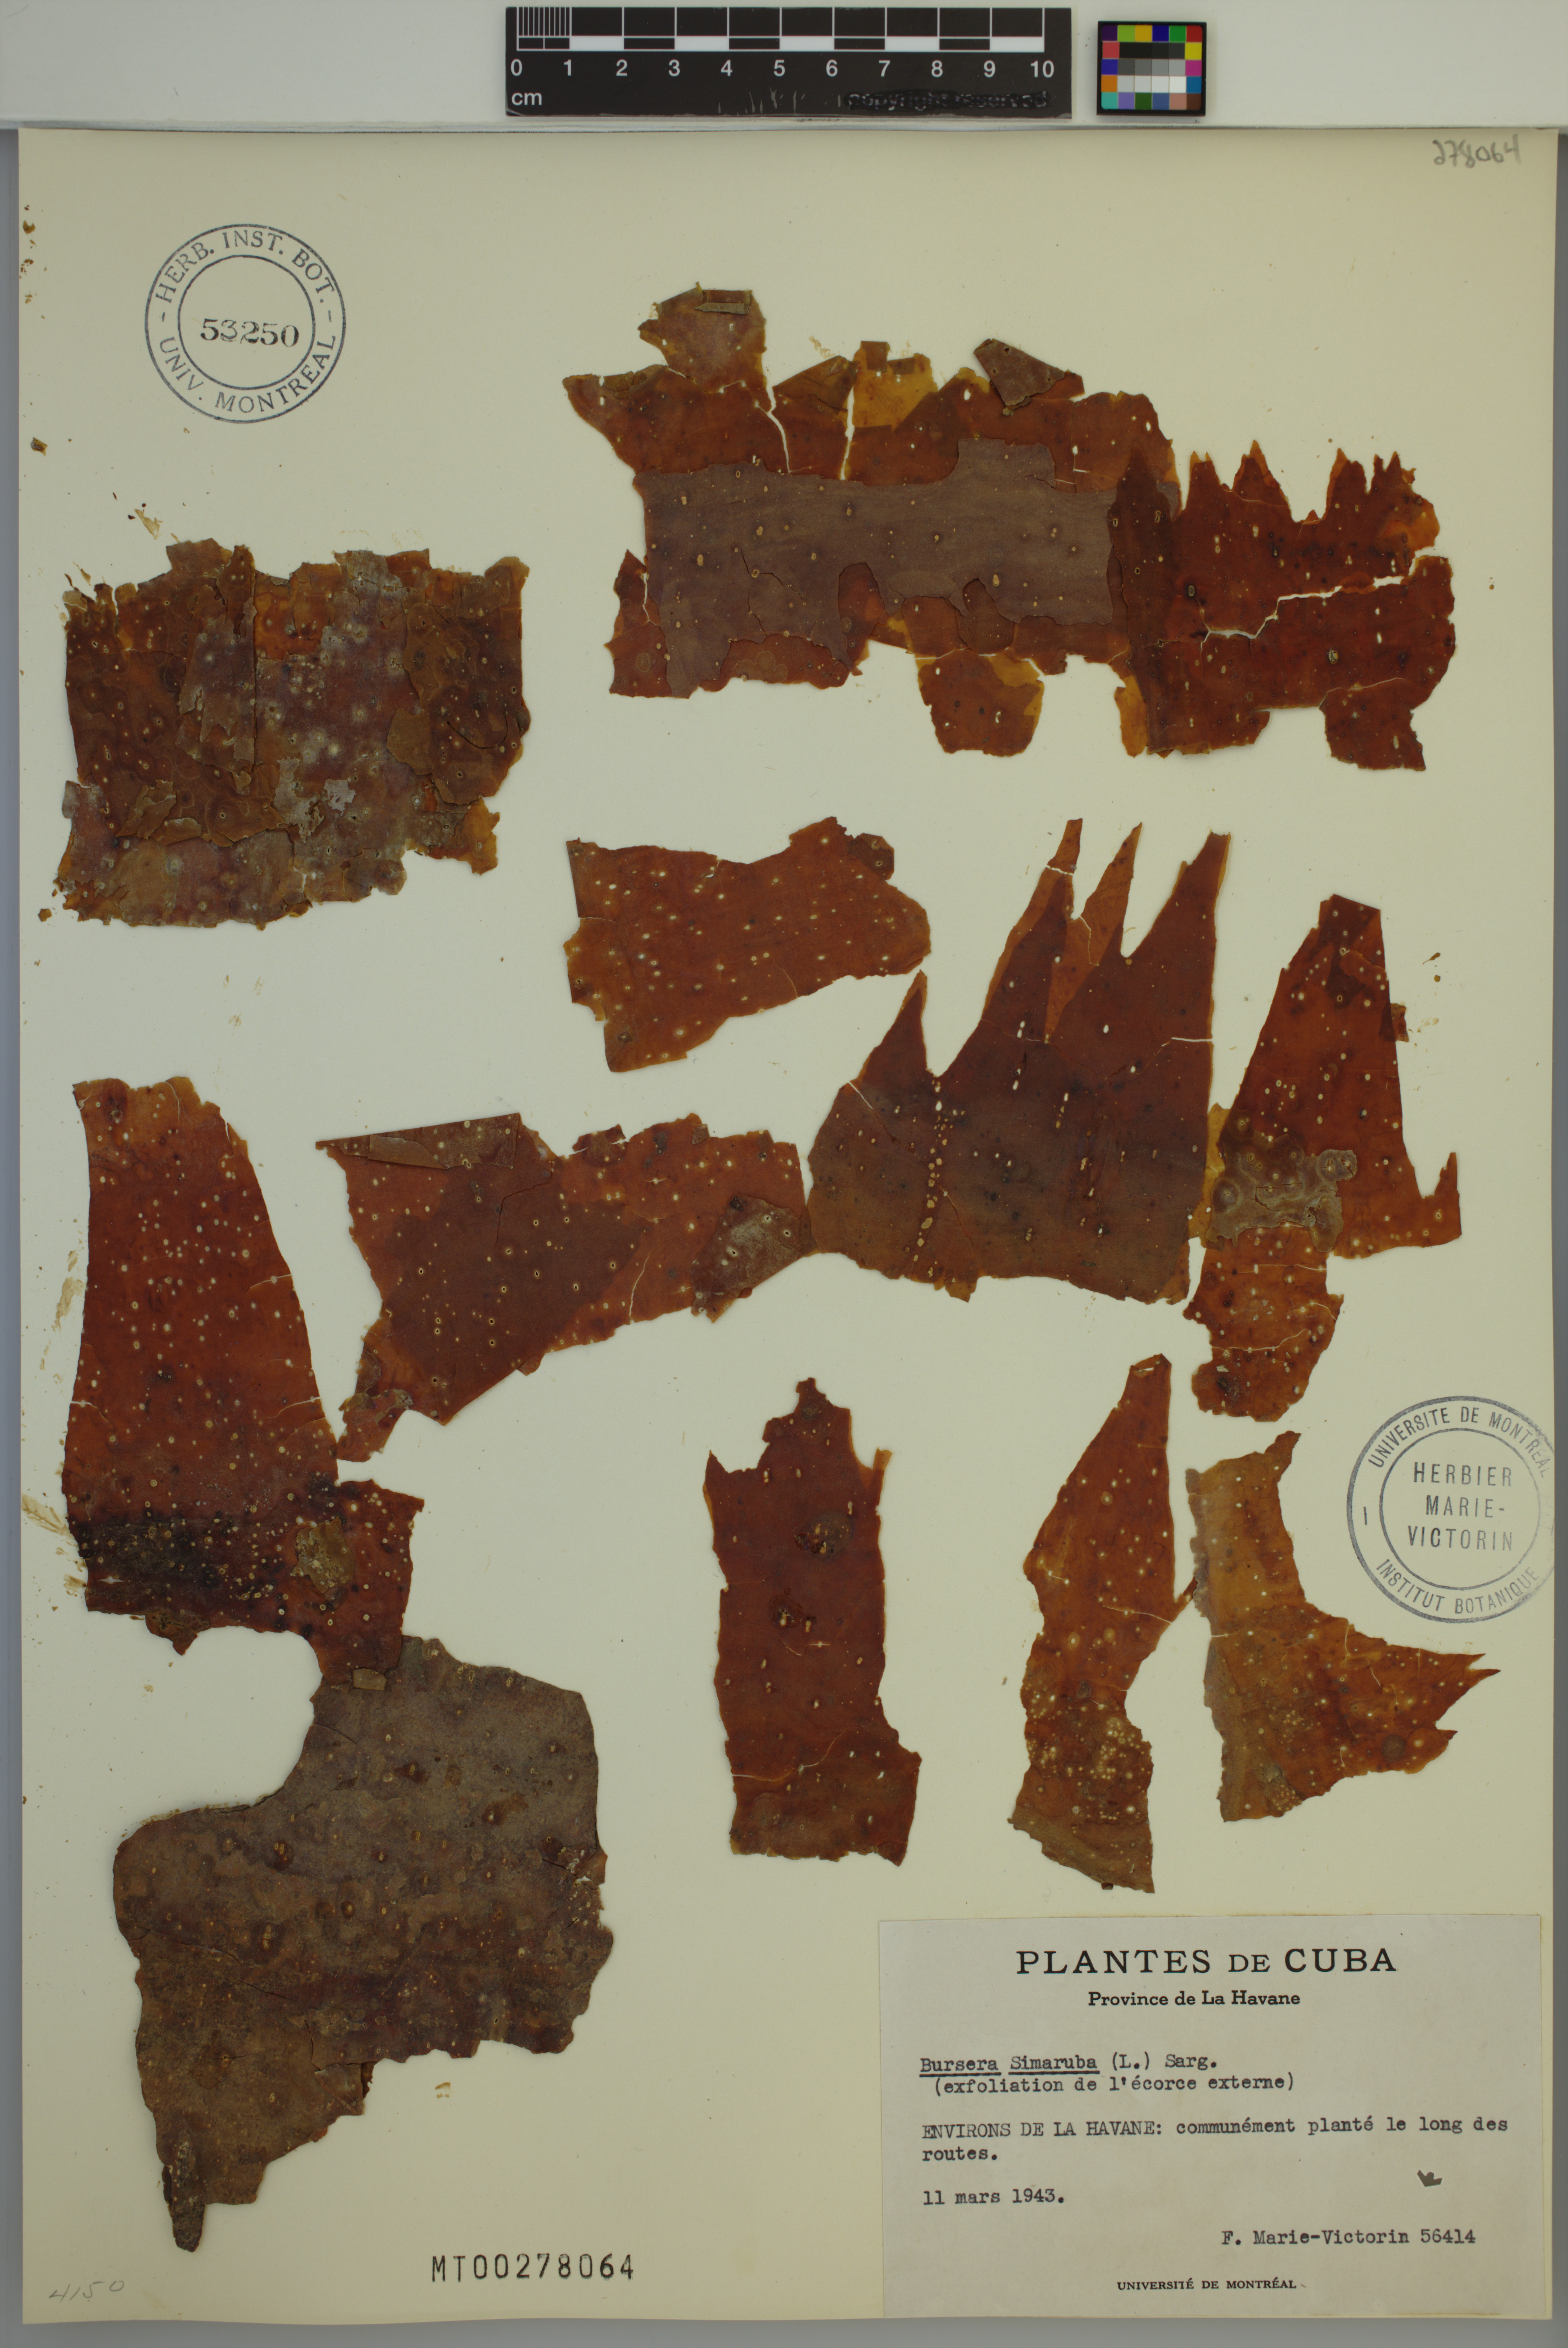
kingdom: Plantae
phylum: Tracheophyta
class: Magnoliopsida
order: Sapindales
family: Burseraceae
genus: Bursera
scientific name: Bursera simaruba
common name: Turpentine tree
